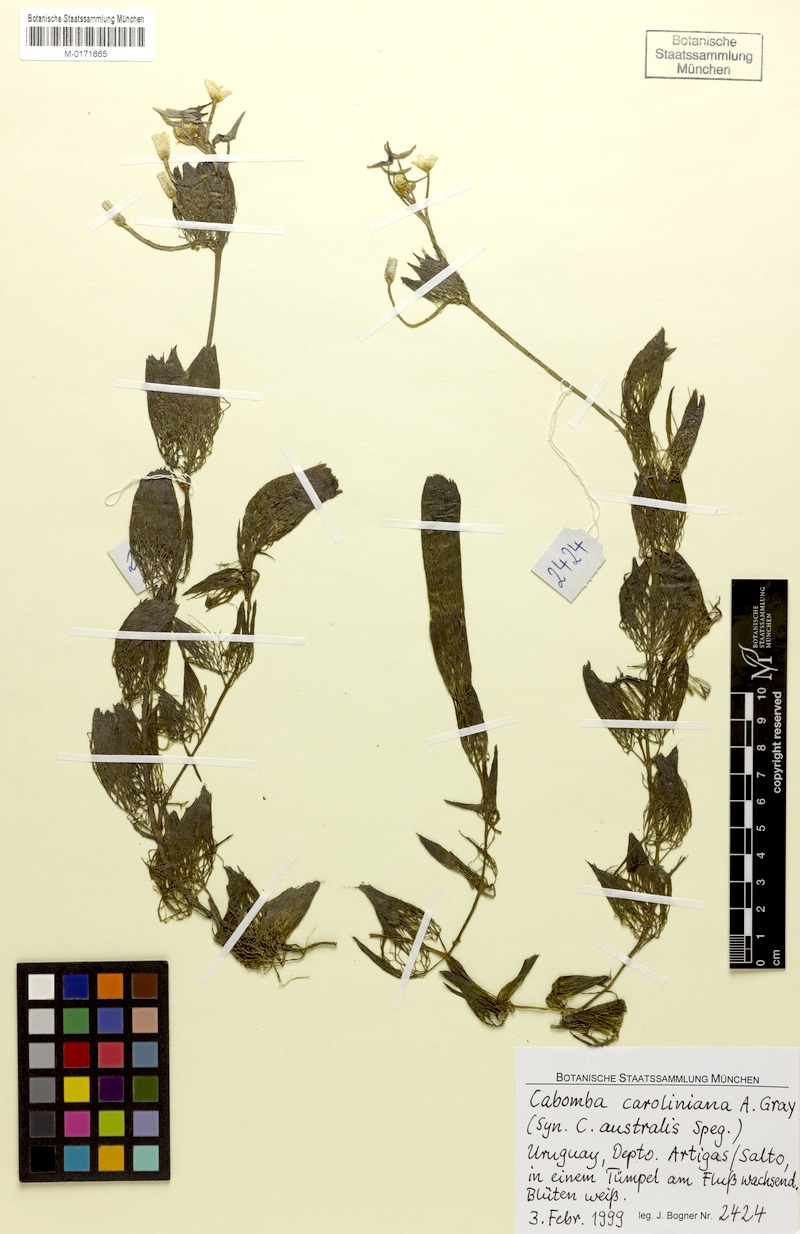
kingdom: Plantae
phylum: Tracheophyta
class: Magnoliopsida
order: Nymphaeales
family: Cabombaceae
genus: Cabomba
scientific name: Cabomba caroliniana
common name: Fanwort
